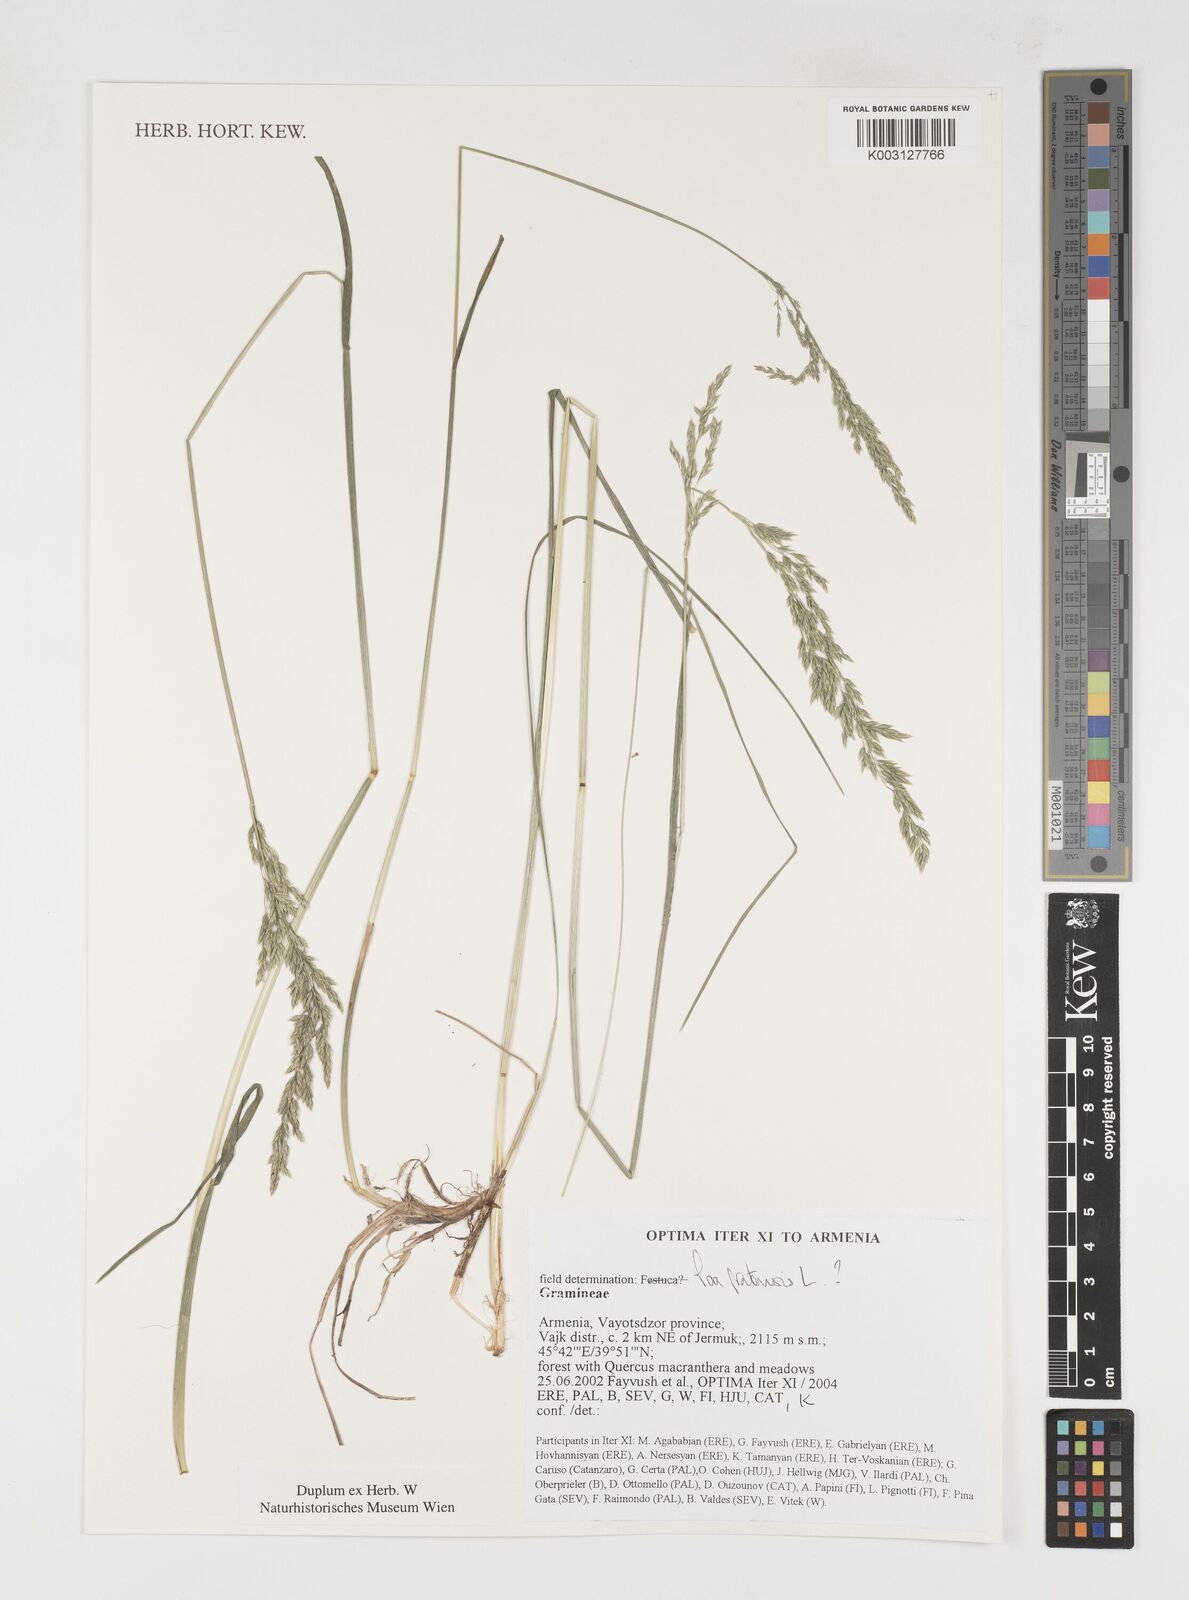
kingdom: Plantae
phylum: Tracheophyta
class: Liliopsida
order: Poales
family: Poaceae
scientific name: Poaceae
